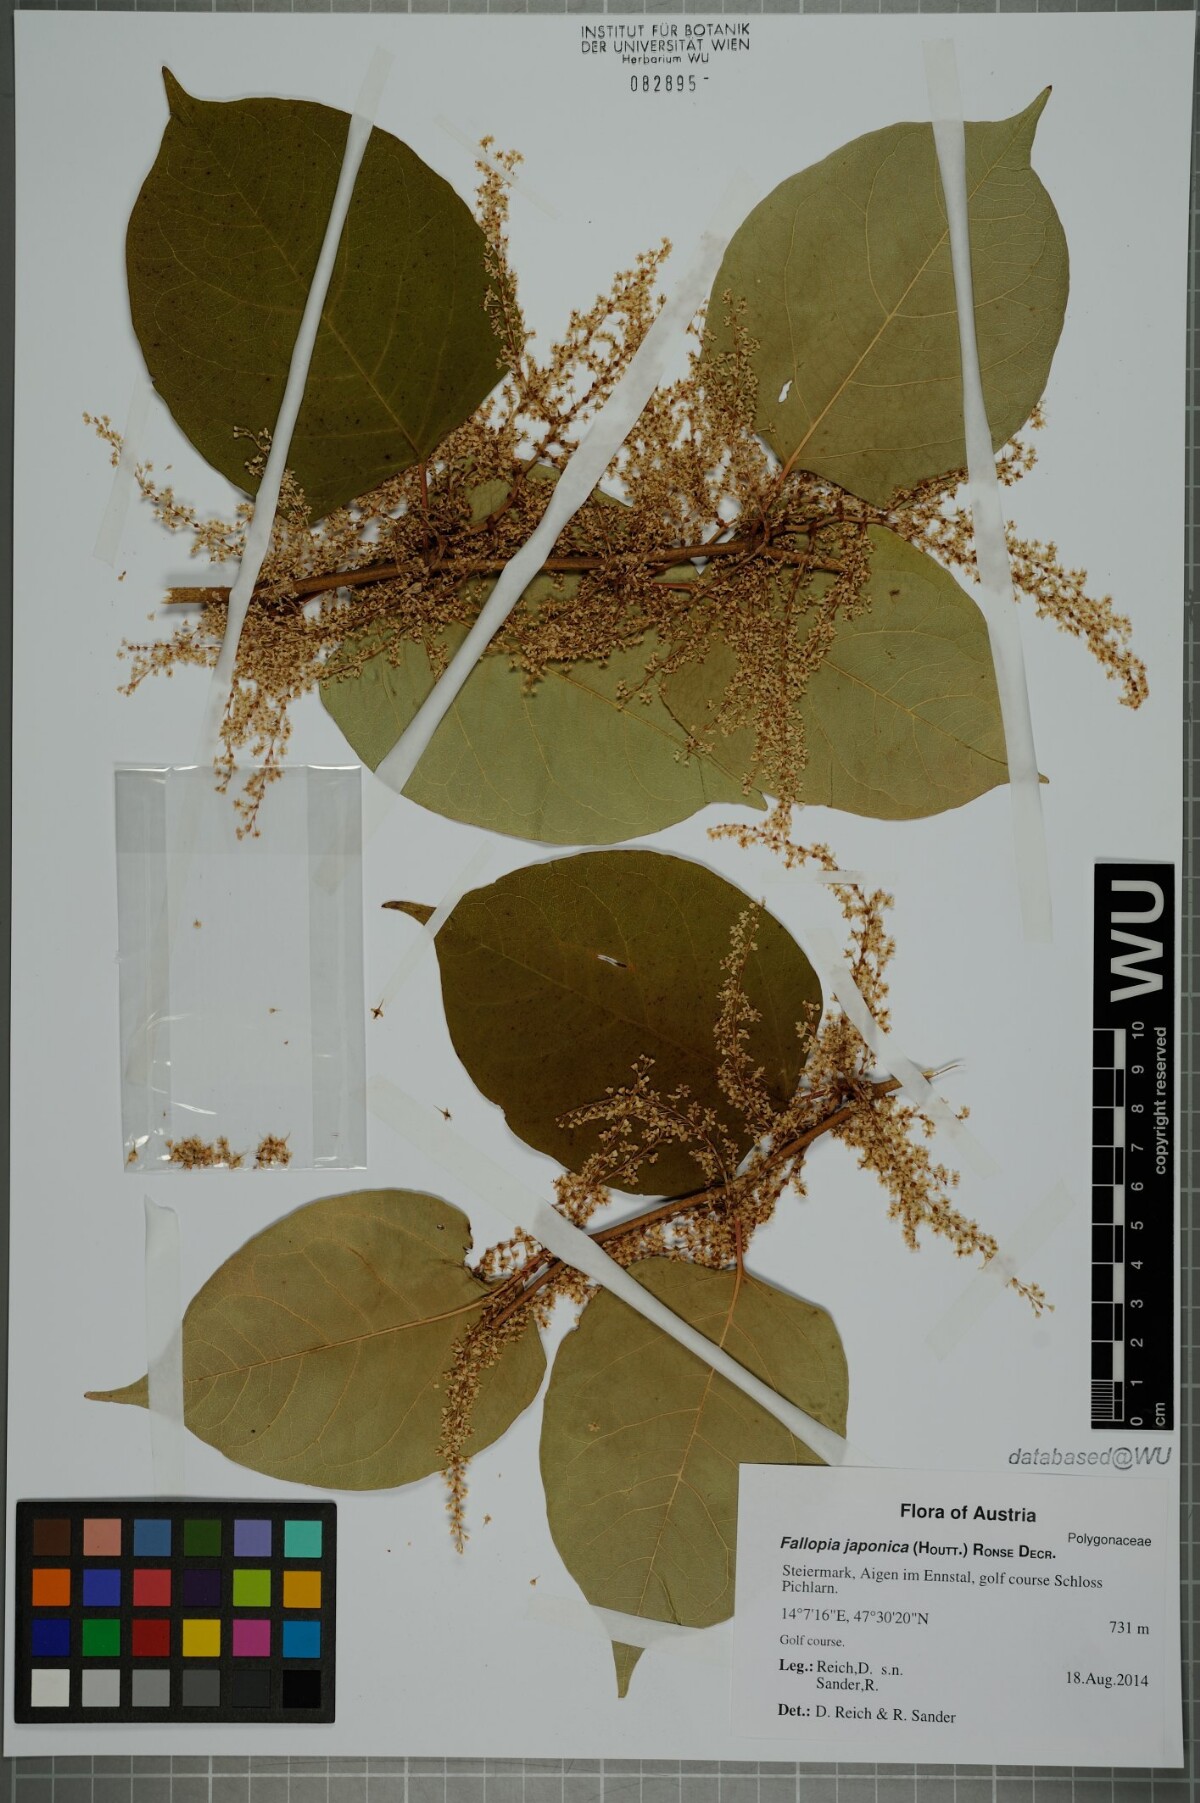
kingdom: Plantae
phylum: Tracheophyta
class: Magnoliopsida
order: Caryophyllales
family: Polygonaceae
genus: Reynoutria
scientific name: Reynoutria japonica
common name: Japanese knotweed
